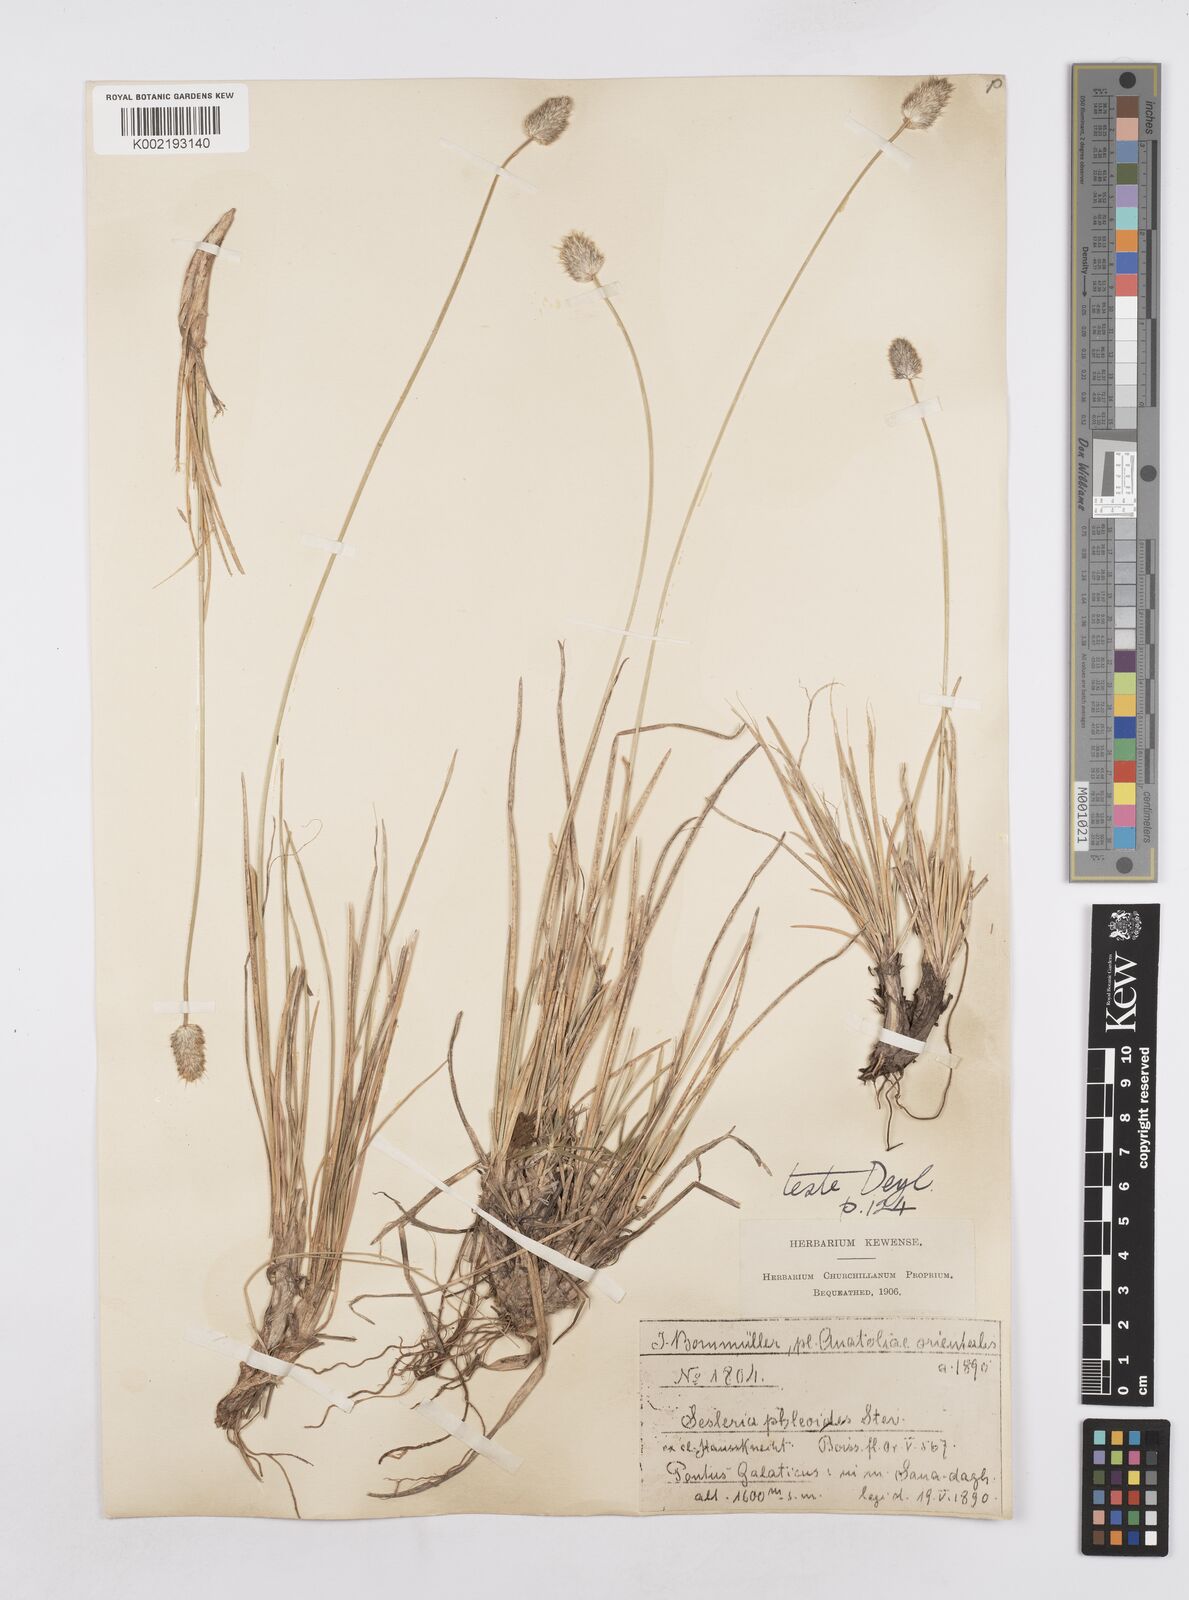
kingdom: Plantae
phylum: Tracheophyta
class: Liliopsida
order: Poales
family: Poaceae
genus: Sesleria
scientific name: Sesleria phleoides
